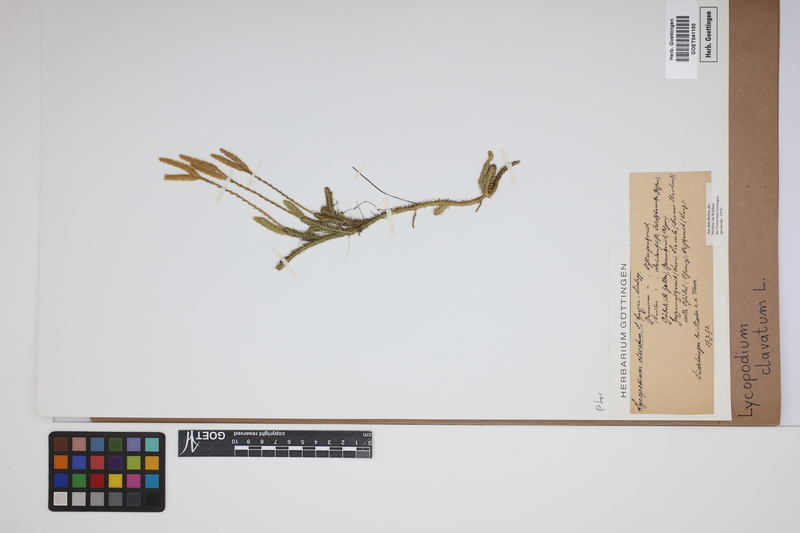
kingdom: Plantae
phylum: Tracheophyta
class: Lycopodiopsida
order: Lycopodiales
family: Lycopodiaceae
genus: Lycopodium
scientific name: Lycopodium clavatum
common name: Stag's-horn clubmoss
